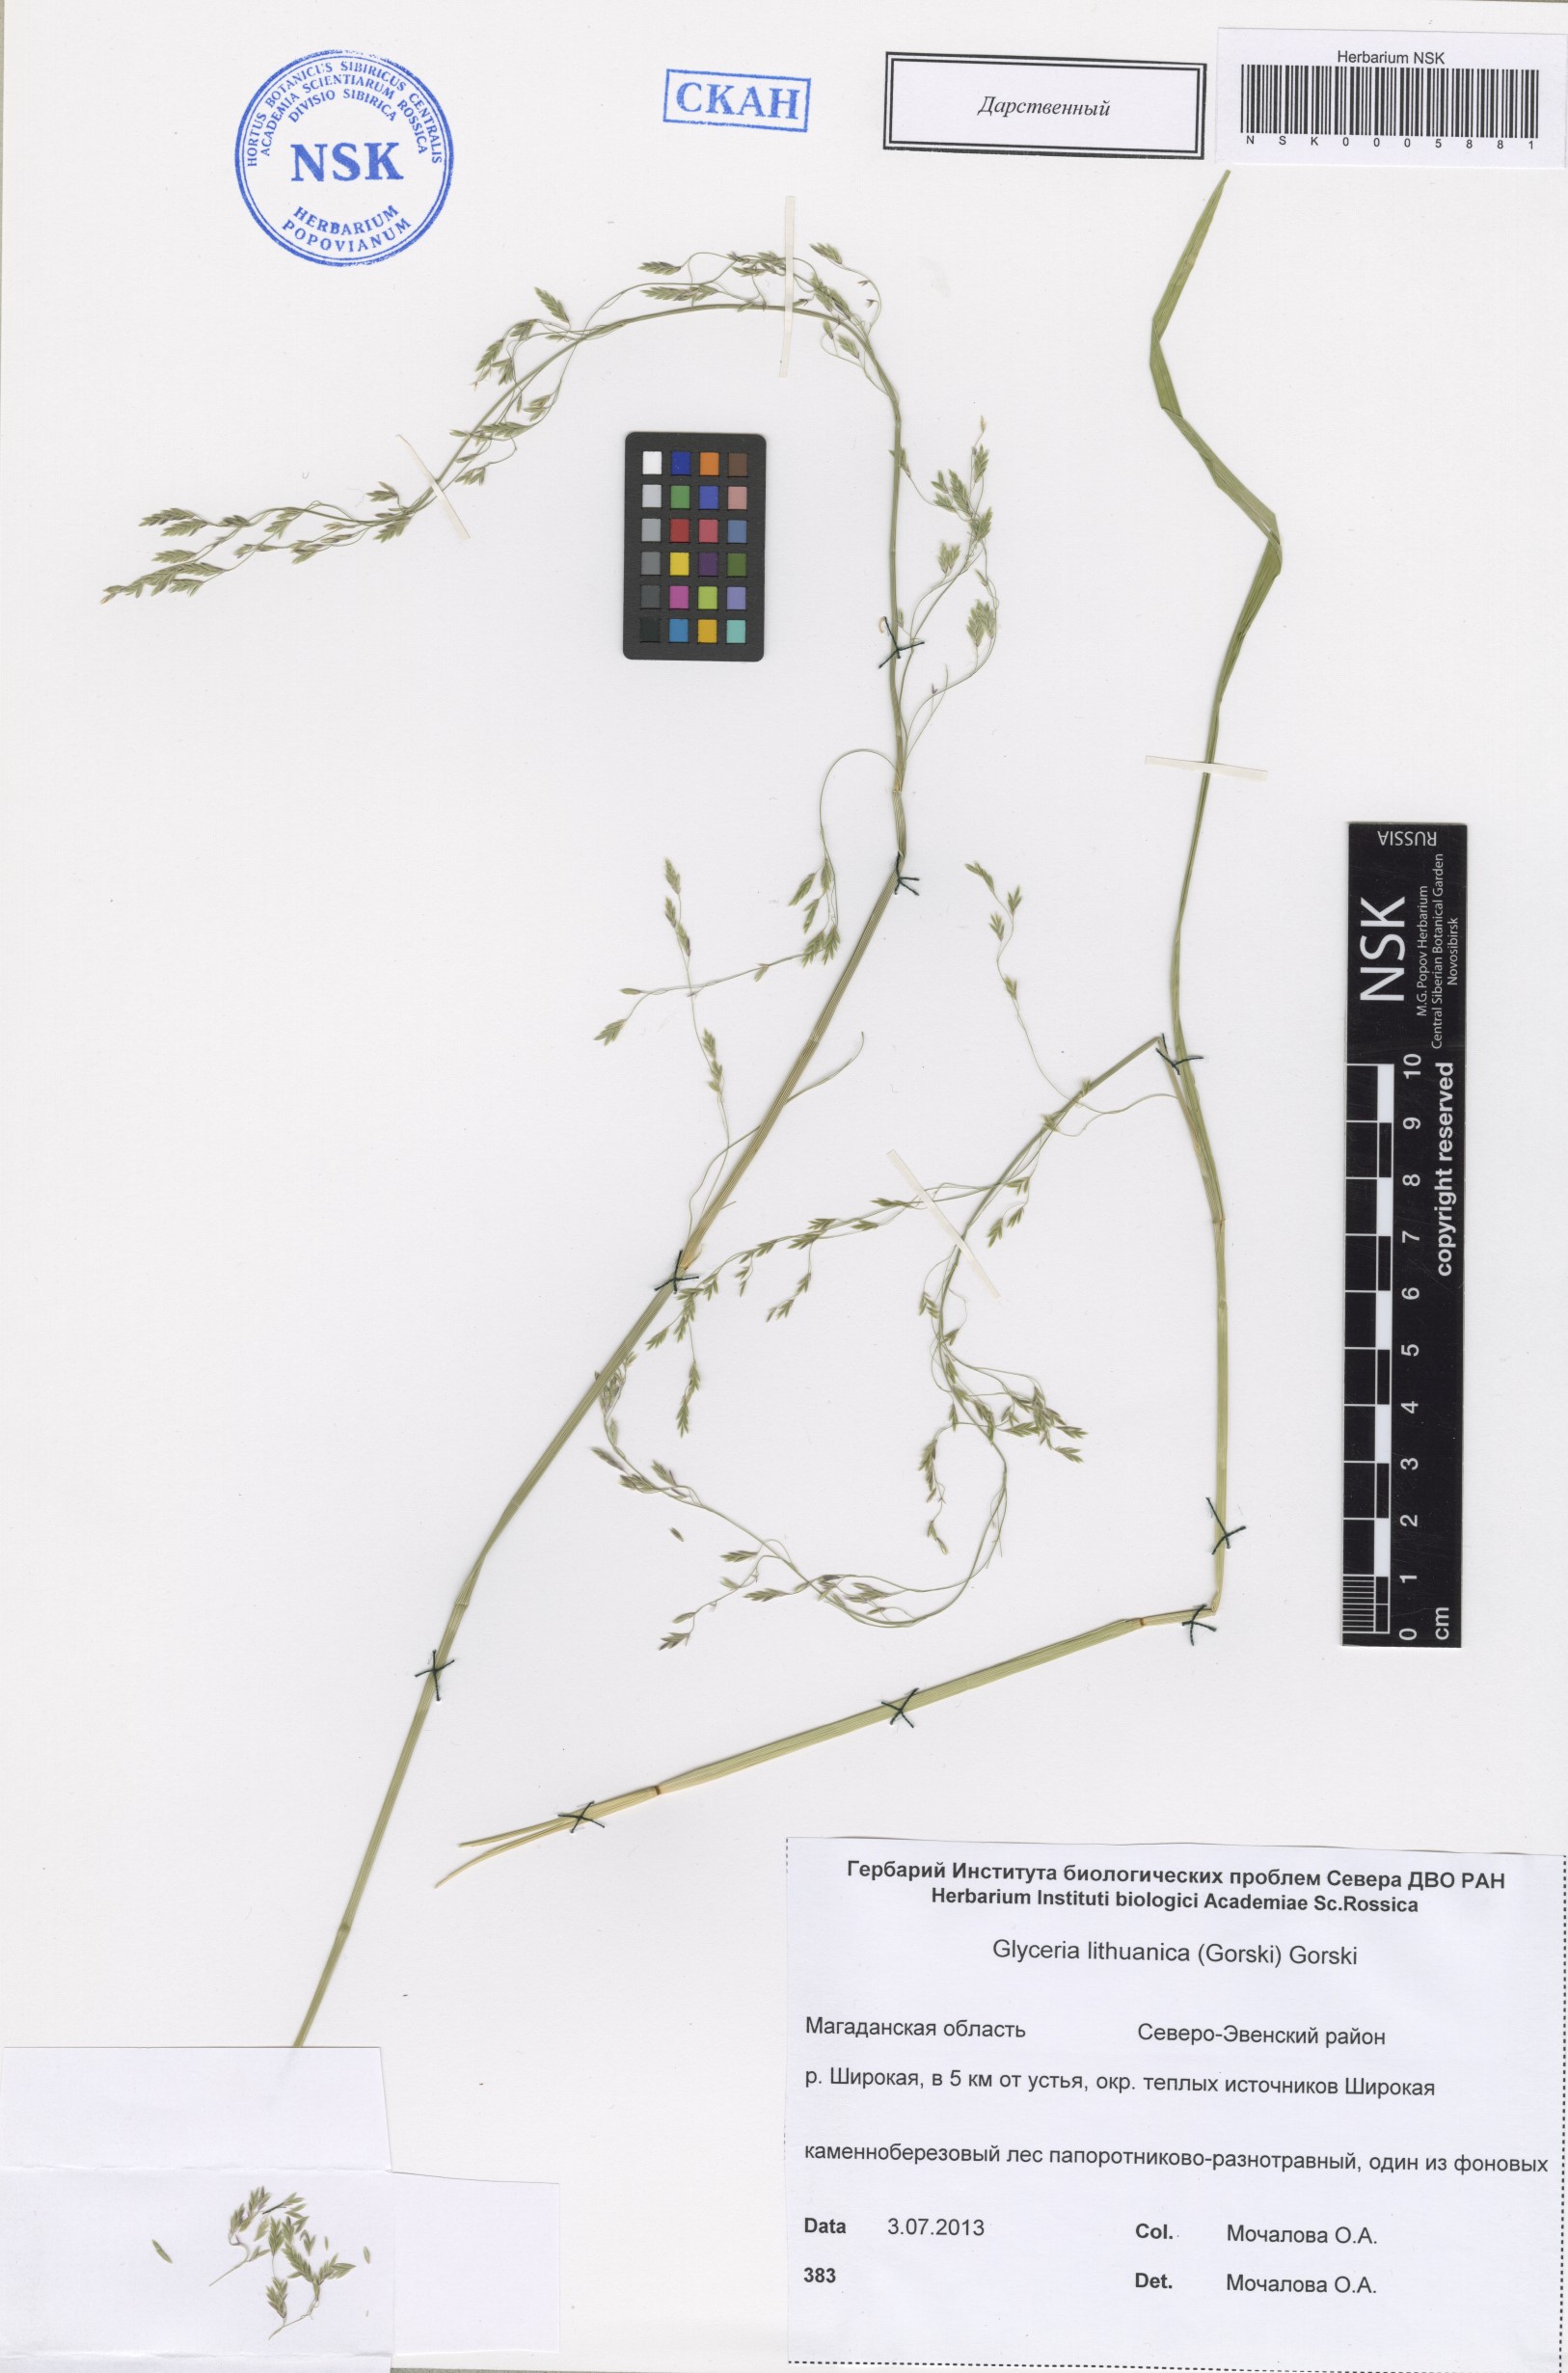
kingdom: Plantae
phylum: Tracheophyta
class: Liliopsida
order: Poales
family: Poaceae
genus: Glyceria
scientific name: Glyceria lithuanica
